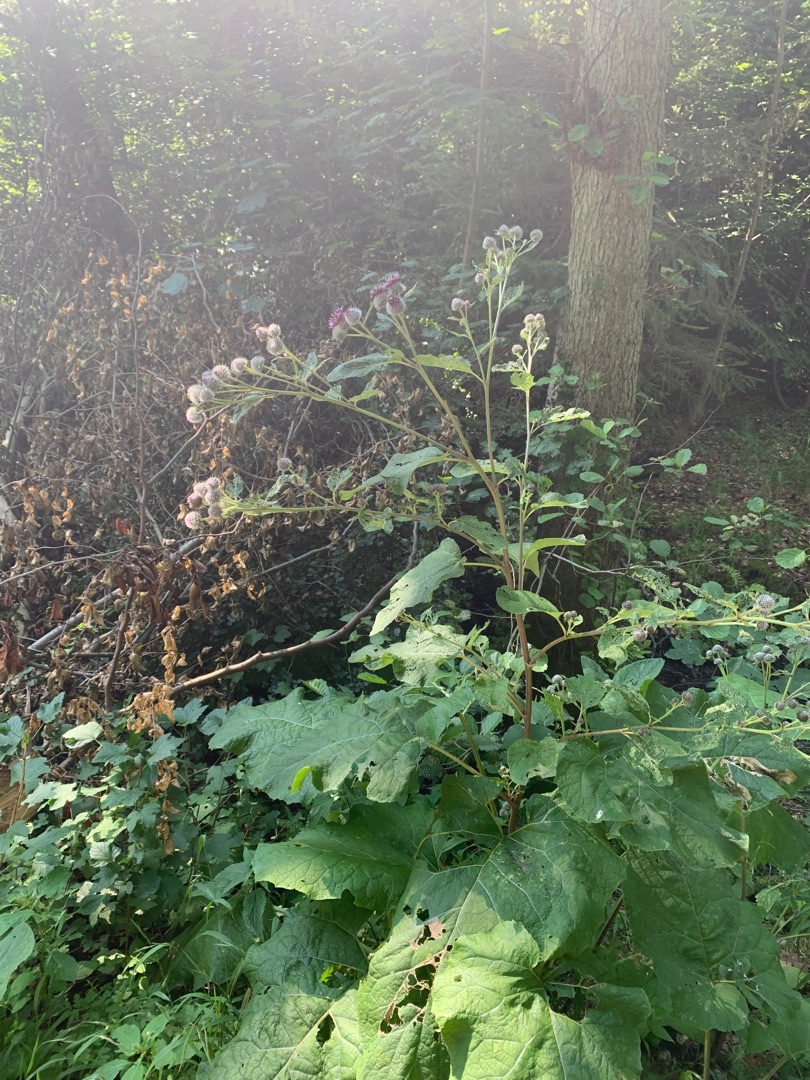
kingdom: Plantae
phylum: Tracheophyta
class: Magnoliopsida
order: Asterales
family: Asteraceae
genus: Arctium
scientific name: Arctium tomentosum
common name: Filtet burre
